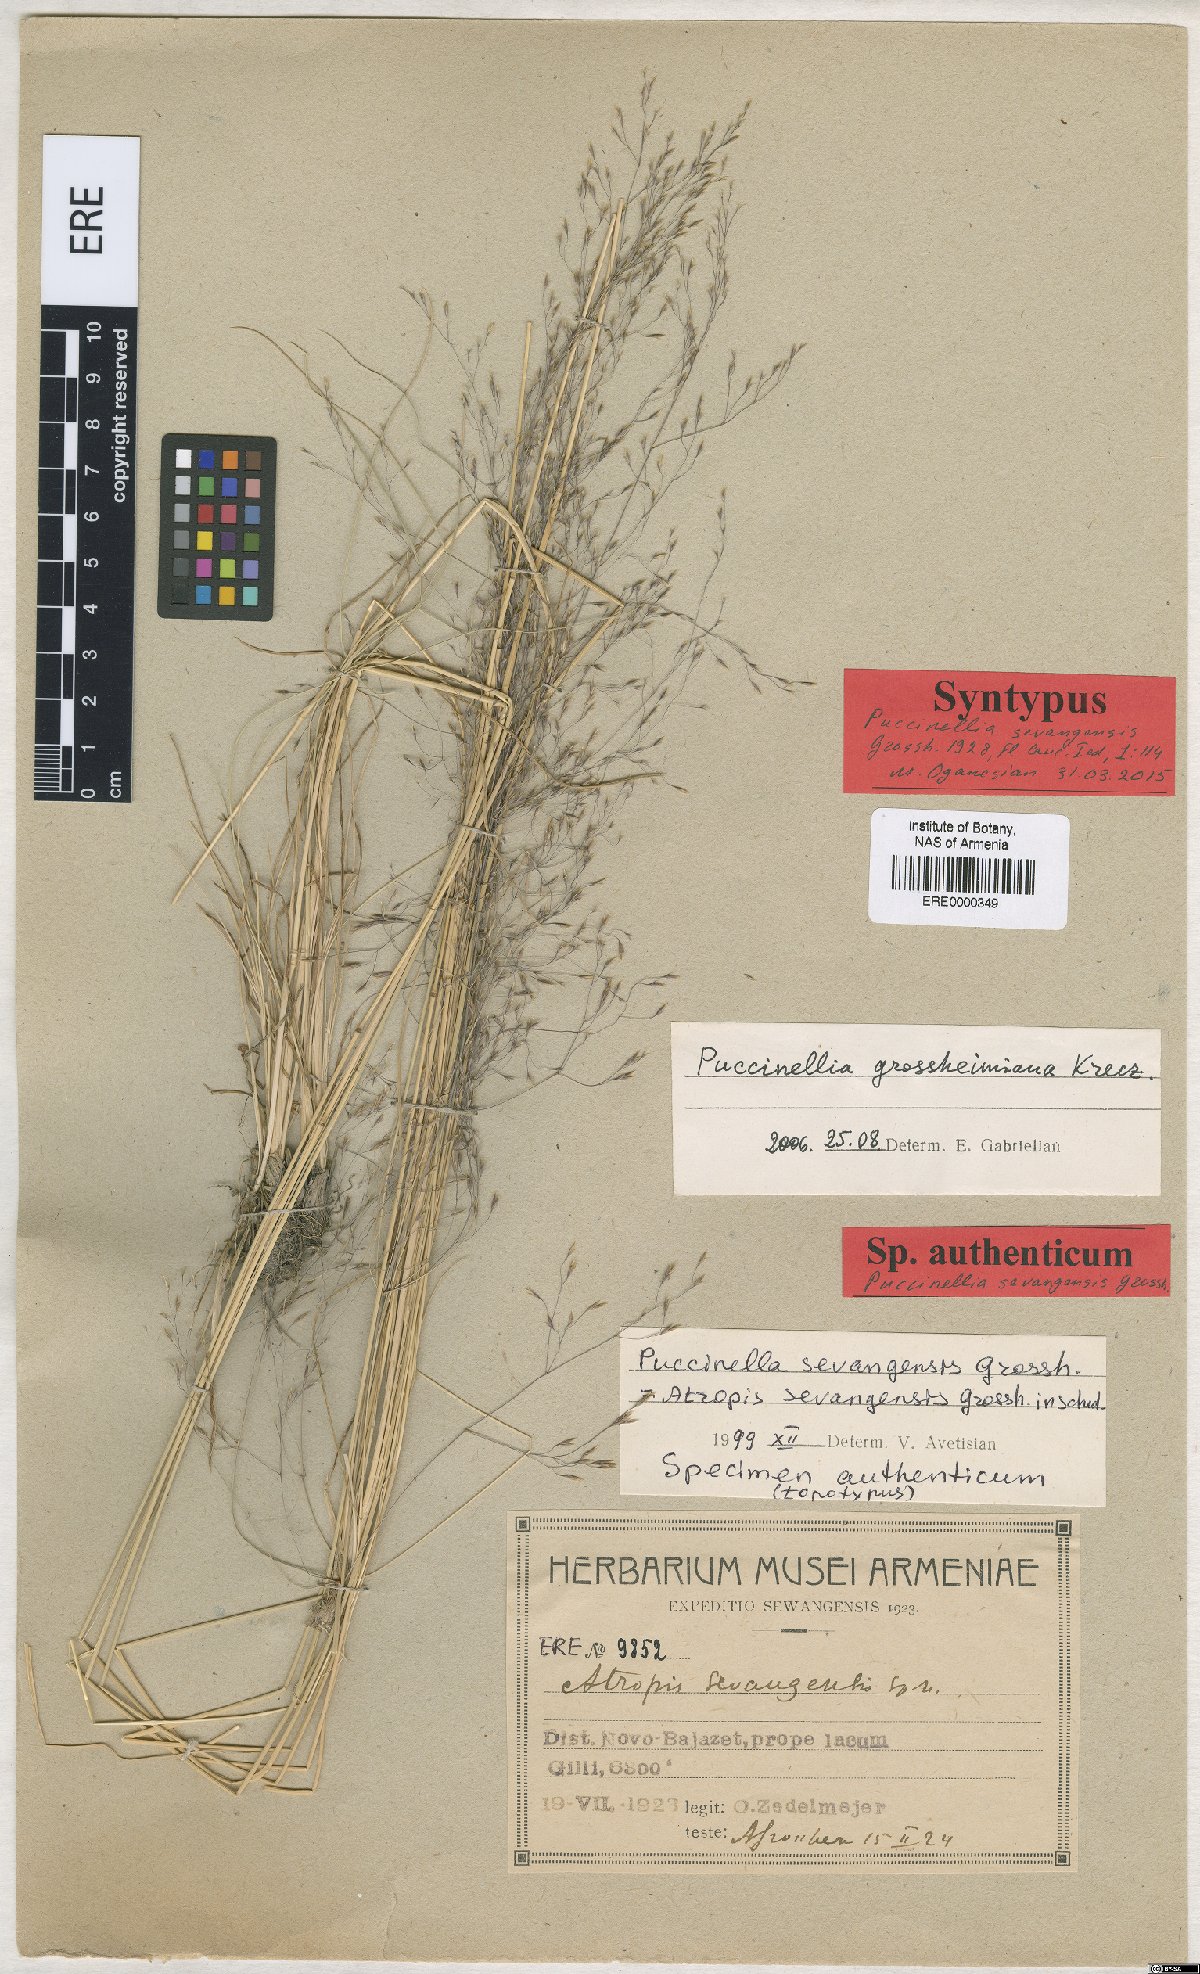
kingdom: Plantae
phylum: Tracheophyta
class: Liliopsida
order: Poales
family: Poaceae
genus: Puccinellia
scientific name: Puccinellia distans
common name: Weeping alkaligrass
